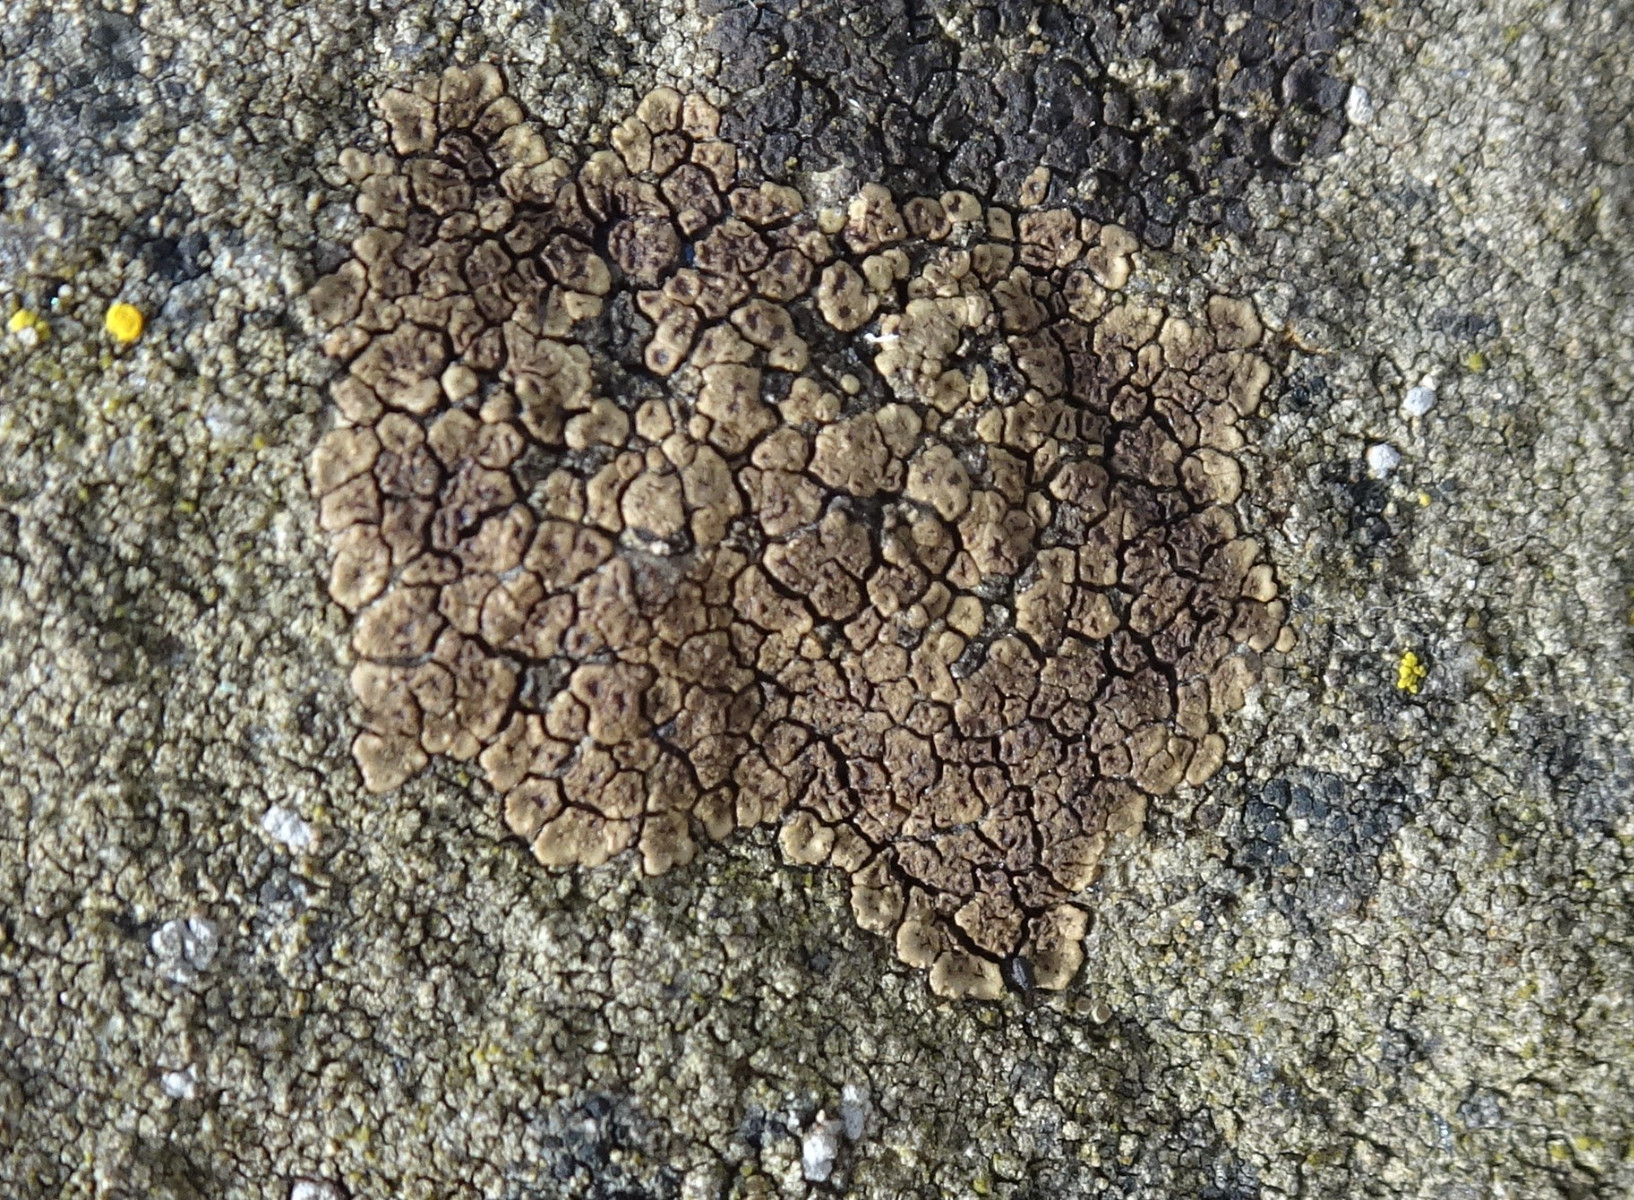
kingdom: Fungi
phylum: Ascomycota
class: Lecanoromycetes
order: Acarosporales
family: Acarosporaceae
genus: Acarospora
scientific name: Acarospora fuscata
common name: brun småsporelav
